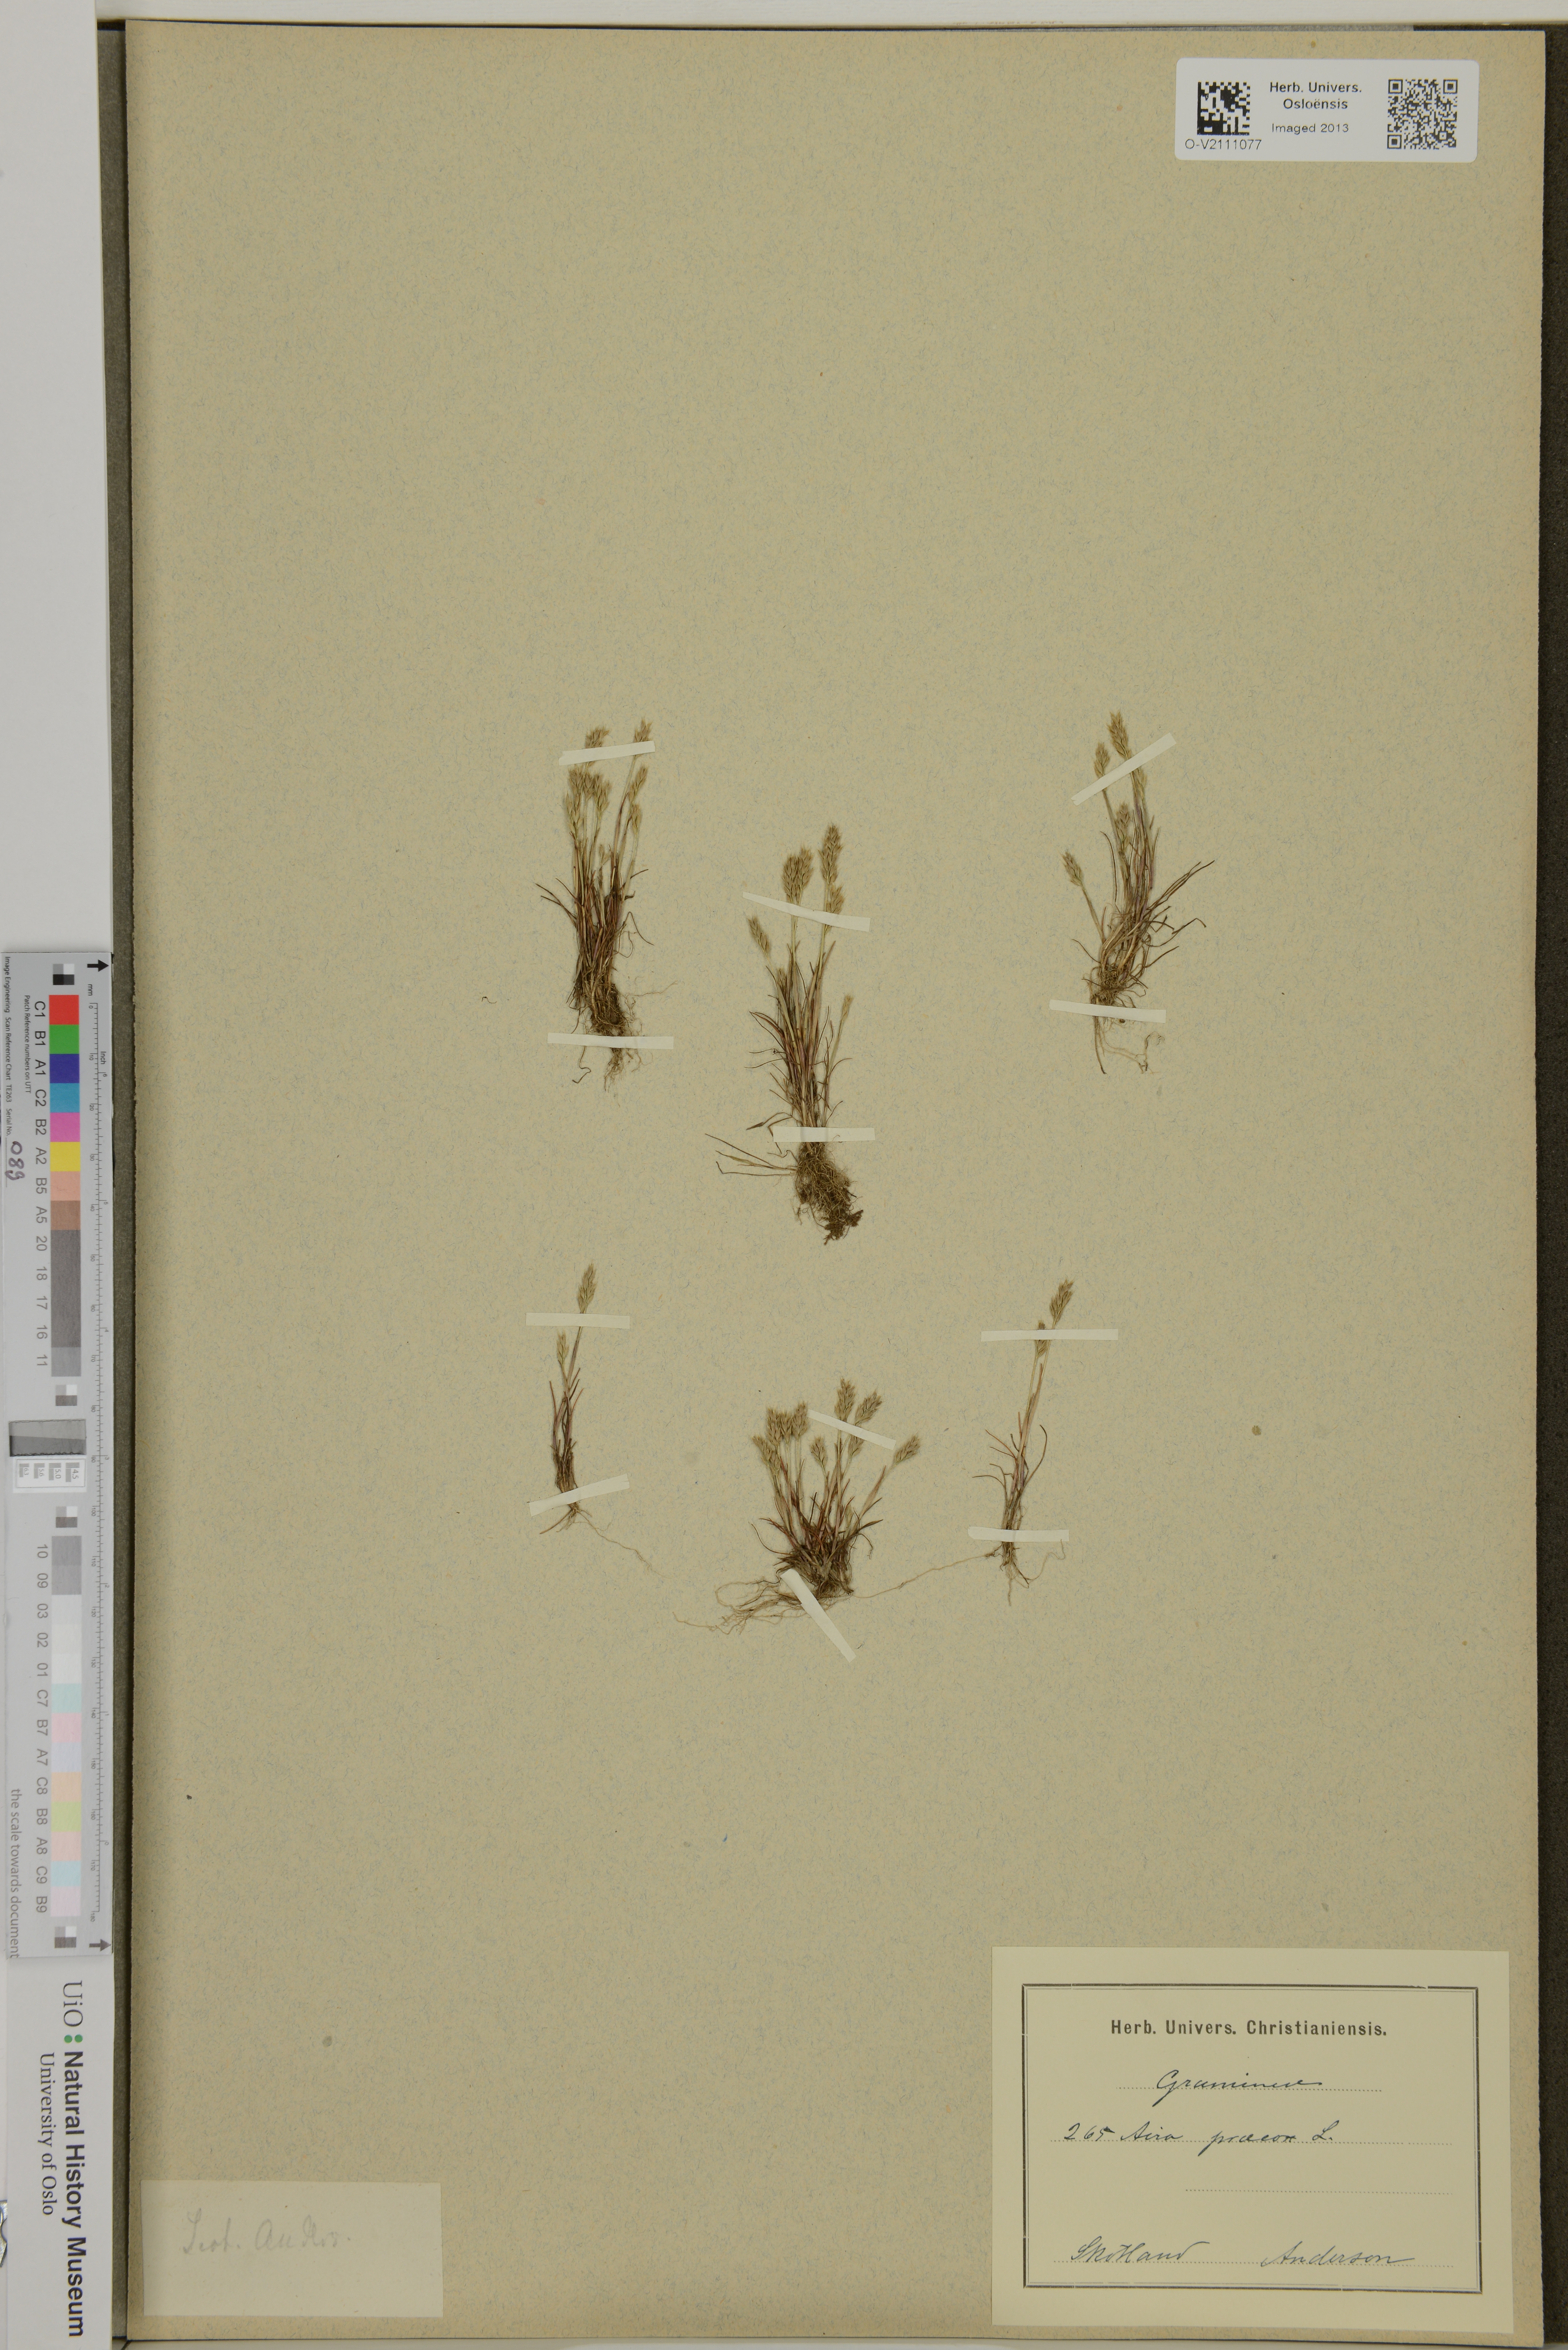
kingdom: Plantae
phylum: Tracheophyta
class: Liliopsida
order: Poales
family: Poaceae
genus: Aira
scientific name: Aira praecox
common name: Early hair-grass
